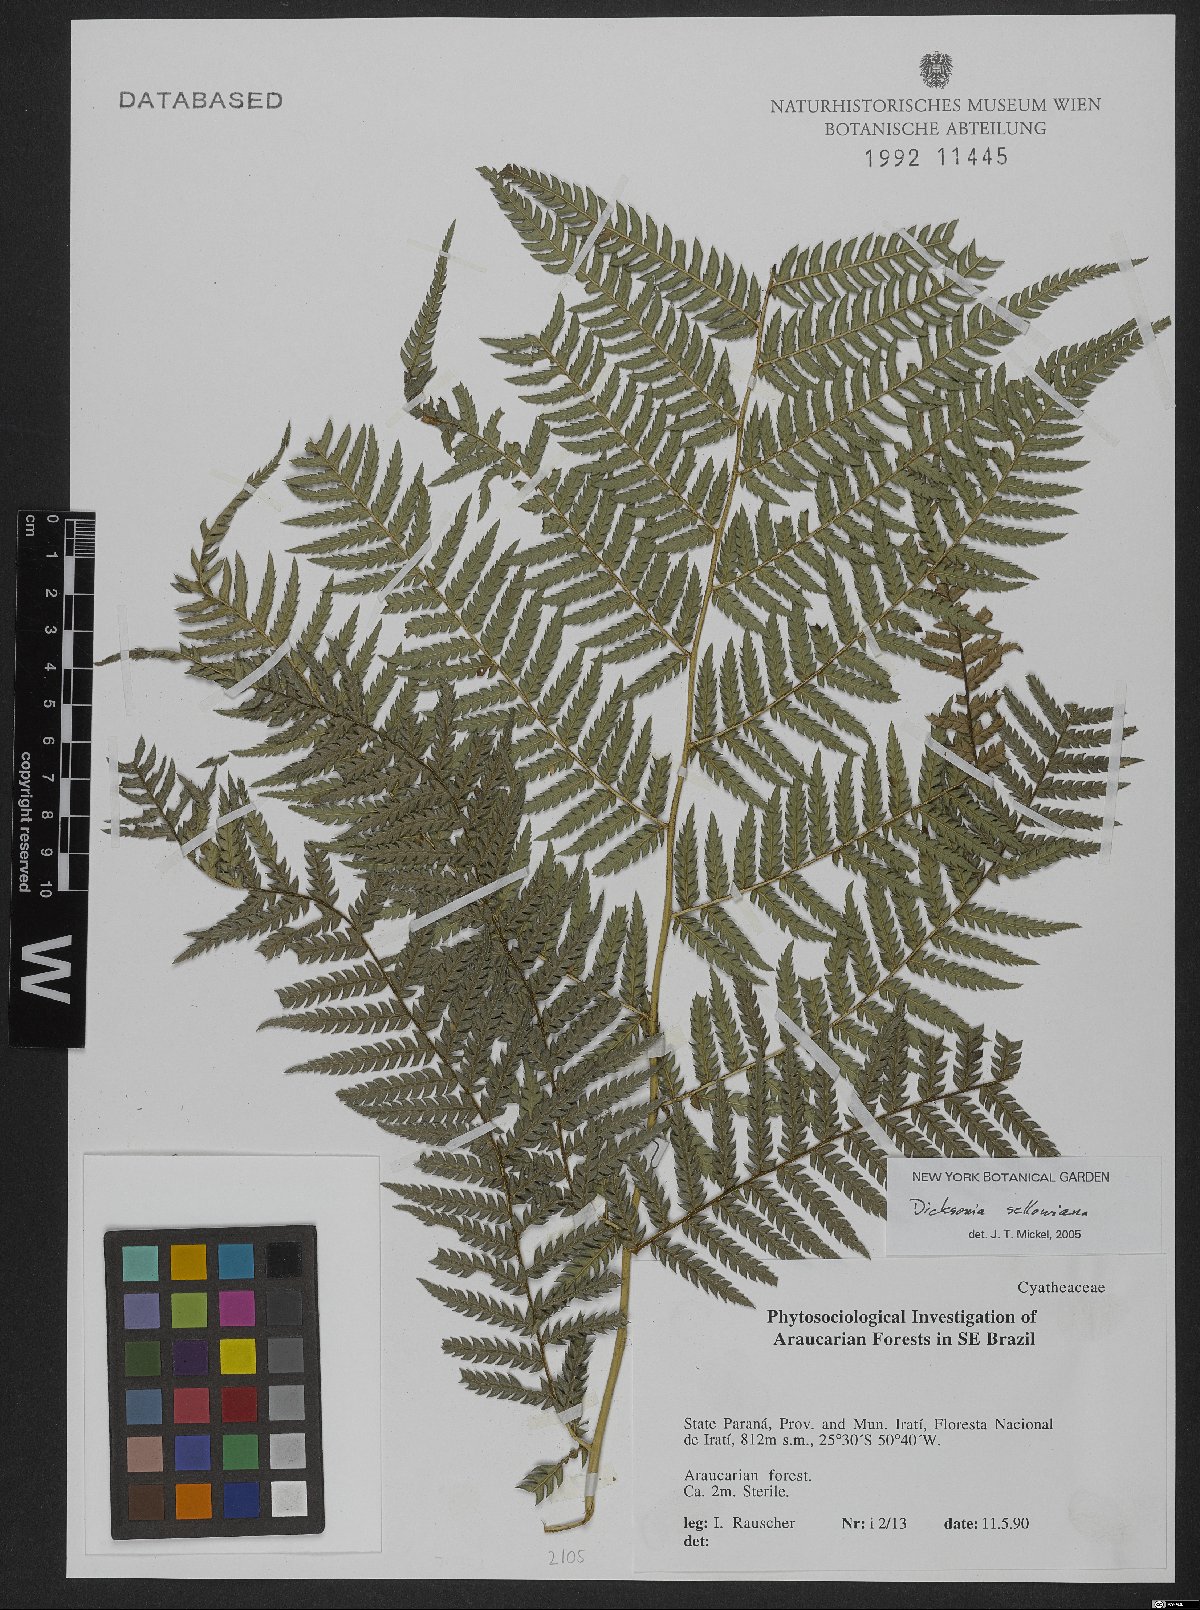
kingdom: Plantae
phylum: Tracheophyta
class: Polypodiopsida
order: Cyatheales
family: Dicksoniaceae
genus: Dicksonia
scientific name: Dicksonia sellowiana
